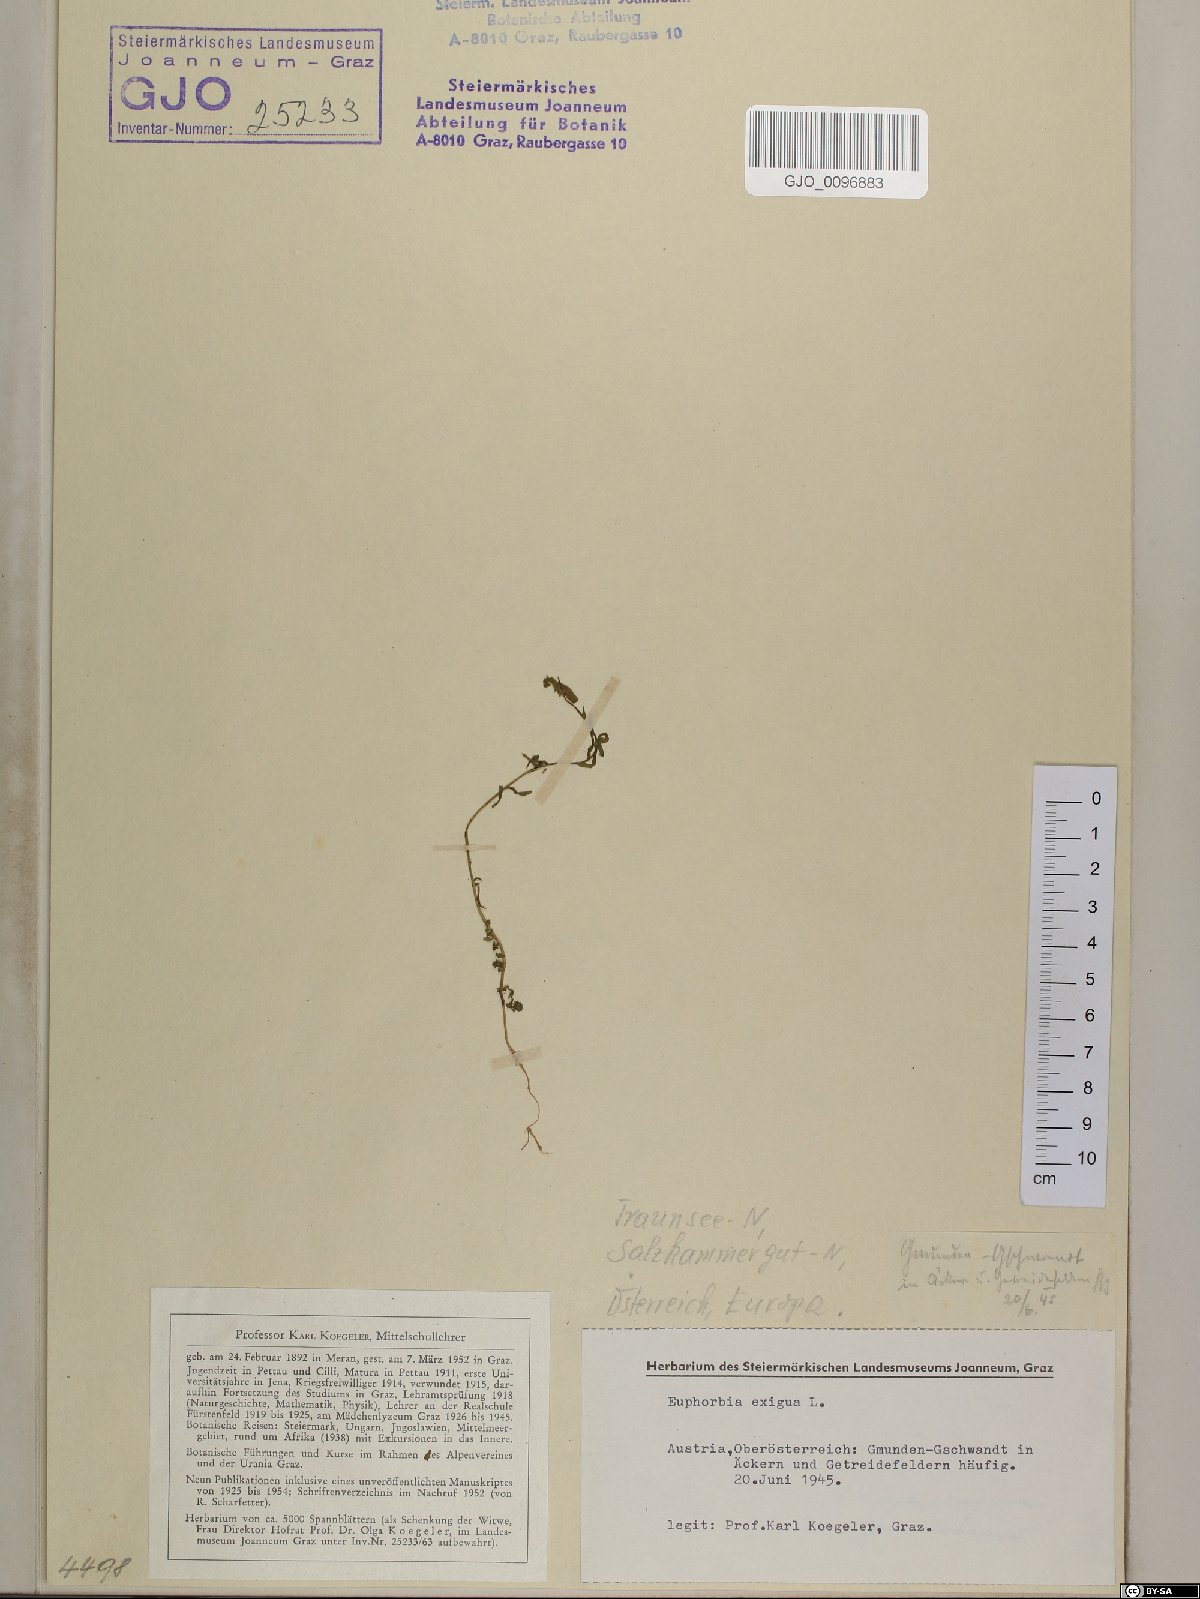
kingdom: Plantae
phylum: Tracheophyta
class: Magnoliopsida
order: Malpighiales
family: Euphorbiaceae
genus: Euphorbia
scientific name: Euphorbia exigua
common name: Dwarf spurge
